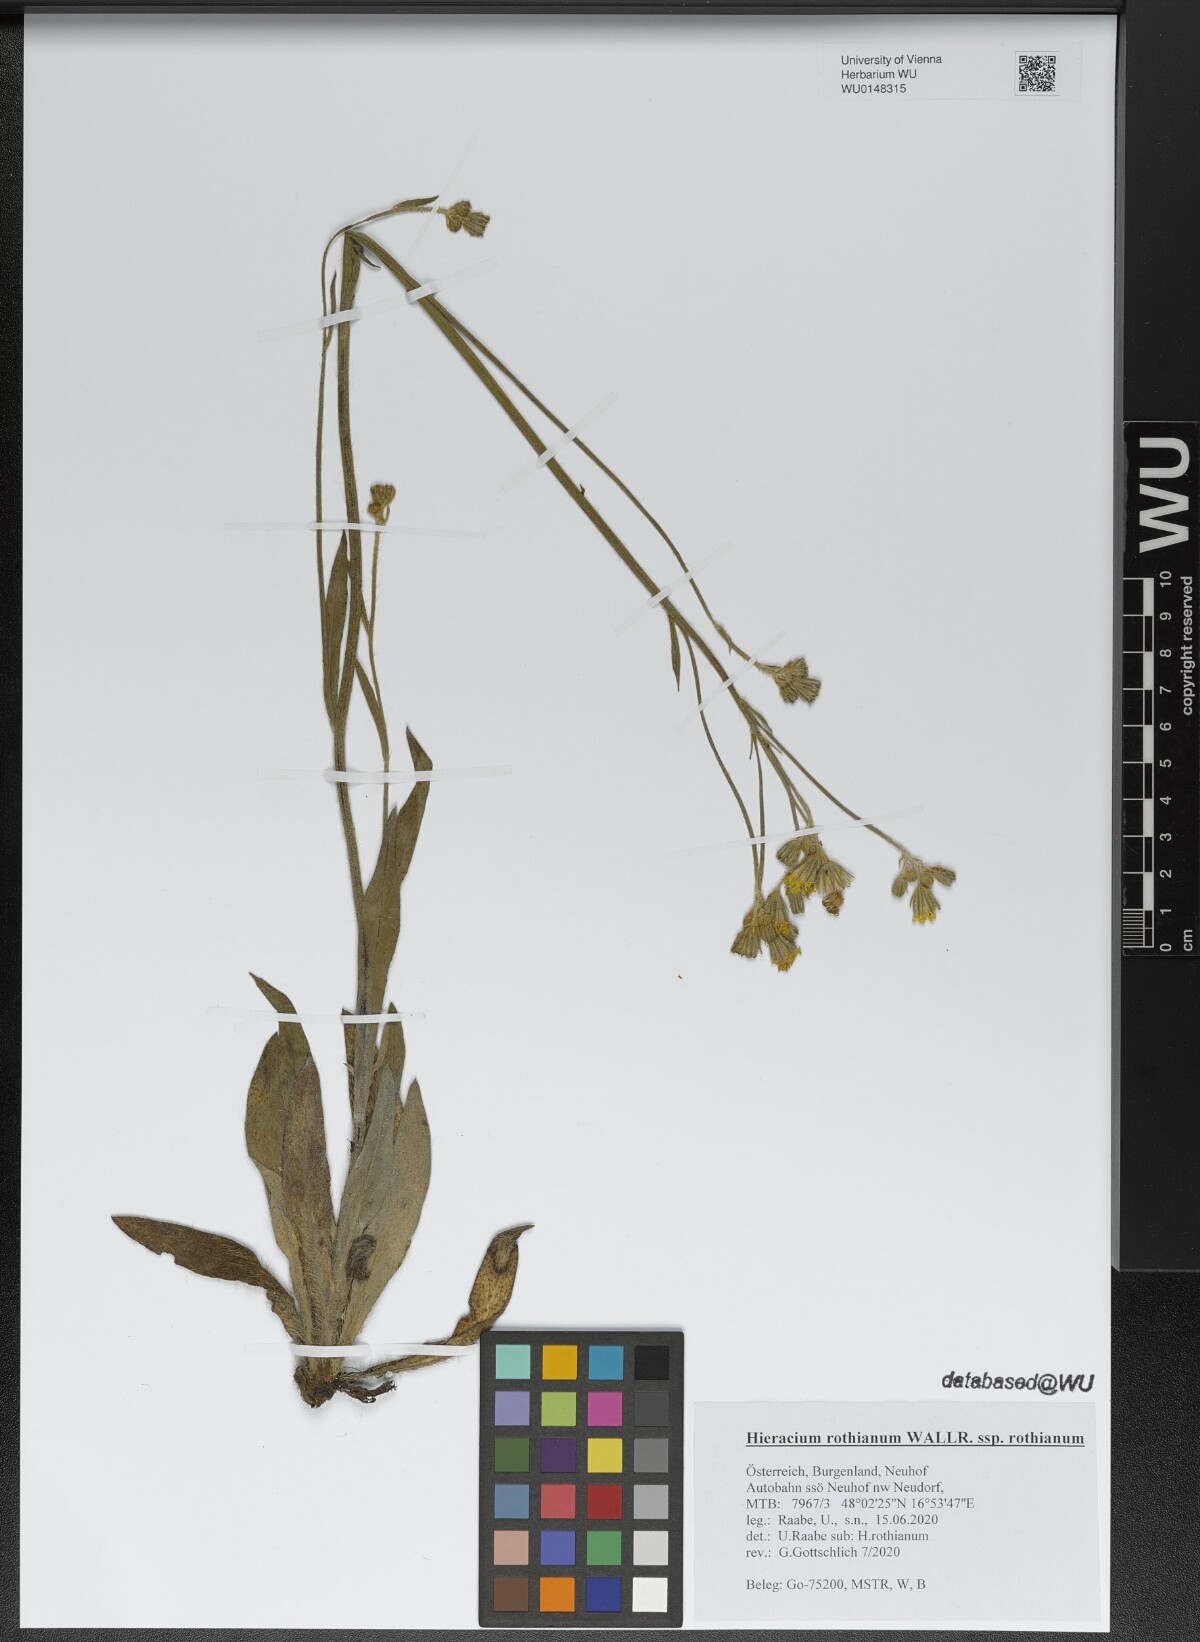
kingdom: Plantae
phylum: Tracheophyta
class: Magnoliopsida
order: Asterales
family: Asteraceae
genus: Pilosella
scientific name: Pilosella rothiana
